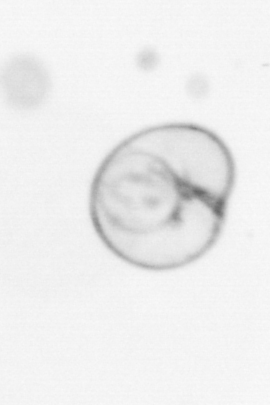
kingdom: Chromista
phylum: Myzozoa
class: Dinophyceae
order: Noctilucales
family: Noctilucaceae
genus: Noctiluca
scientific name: Noctiluca scintillans
